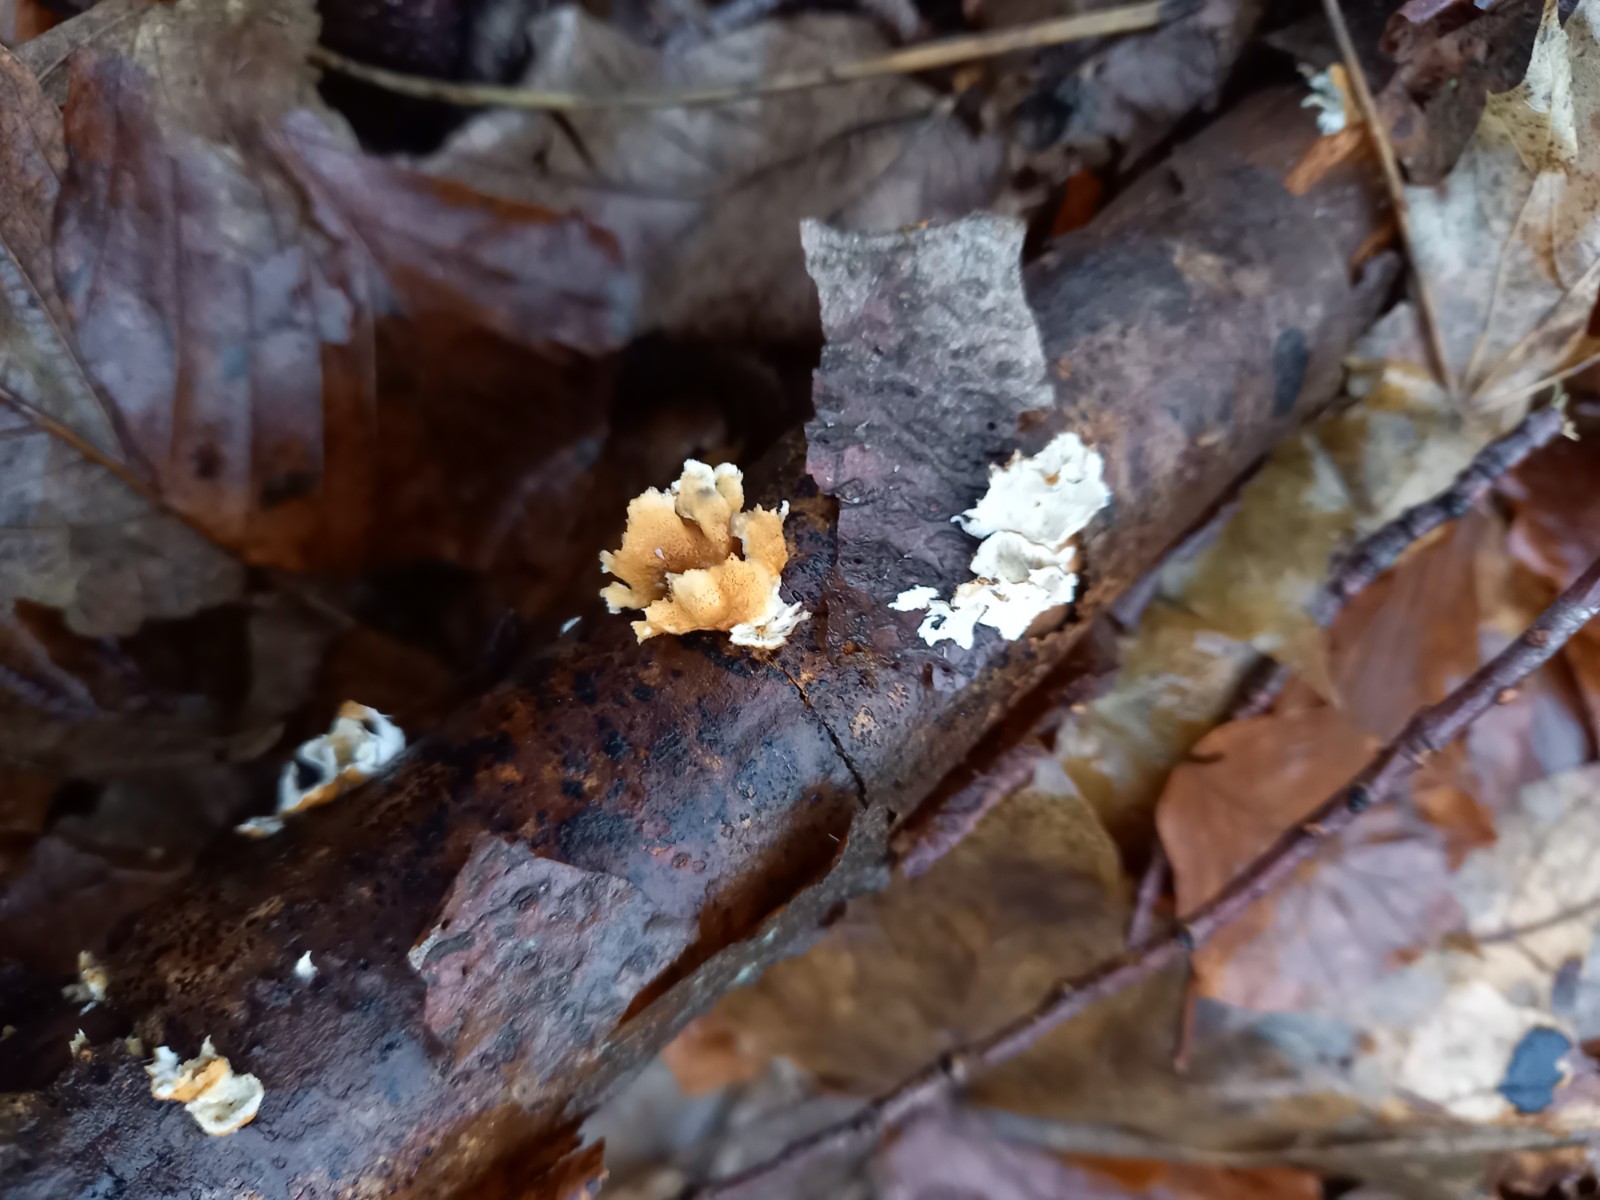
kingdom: Fungi
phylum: Basidiomycota
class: Agaricomycetes
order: Amylocorticiales
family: Amylocorticiaceae
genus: Plicaturopsis
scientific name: Plicaturopsis crispa
